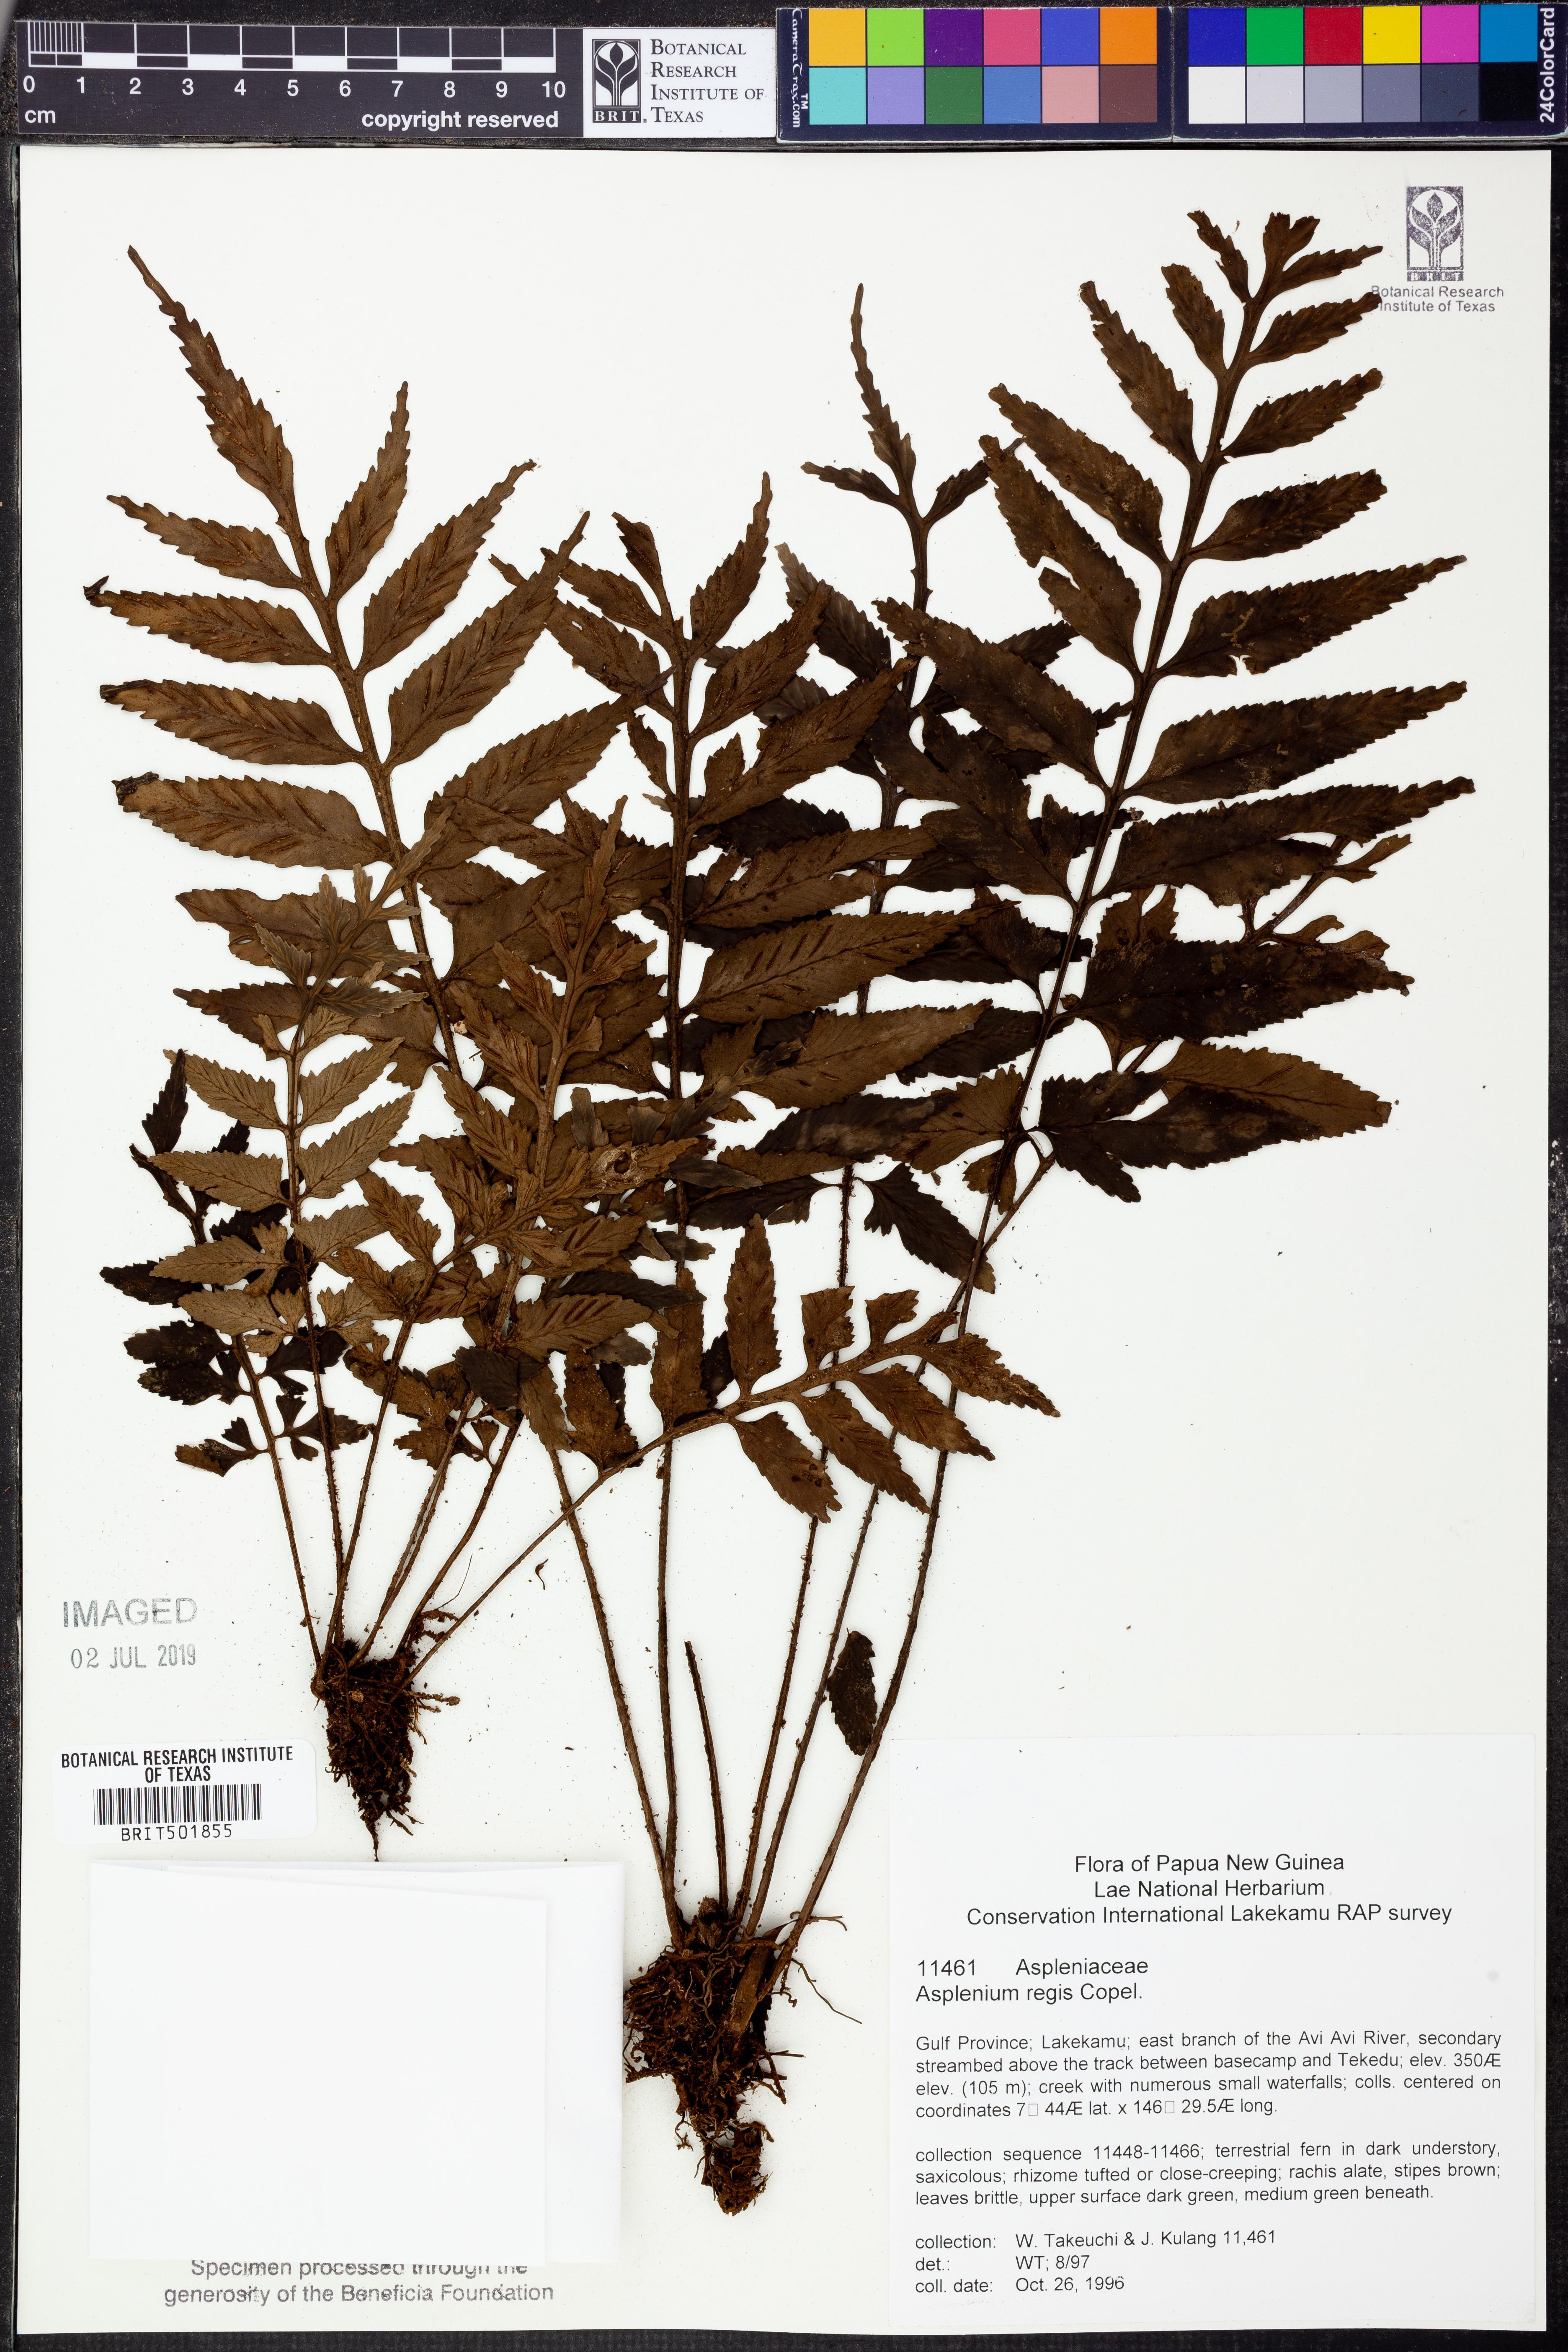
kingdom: Plantae
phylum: Tracheophyta
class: Polypodiopsida
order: Polypodiales
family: Aspleniaceae
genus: Asplenium
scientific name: Asplenium regis
